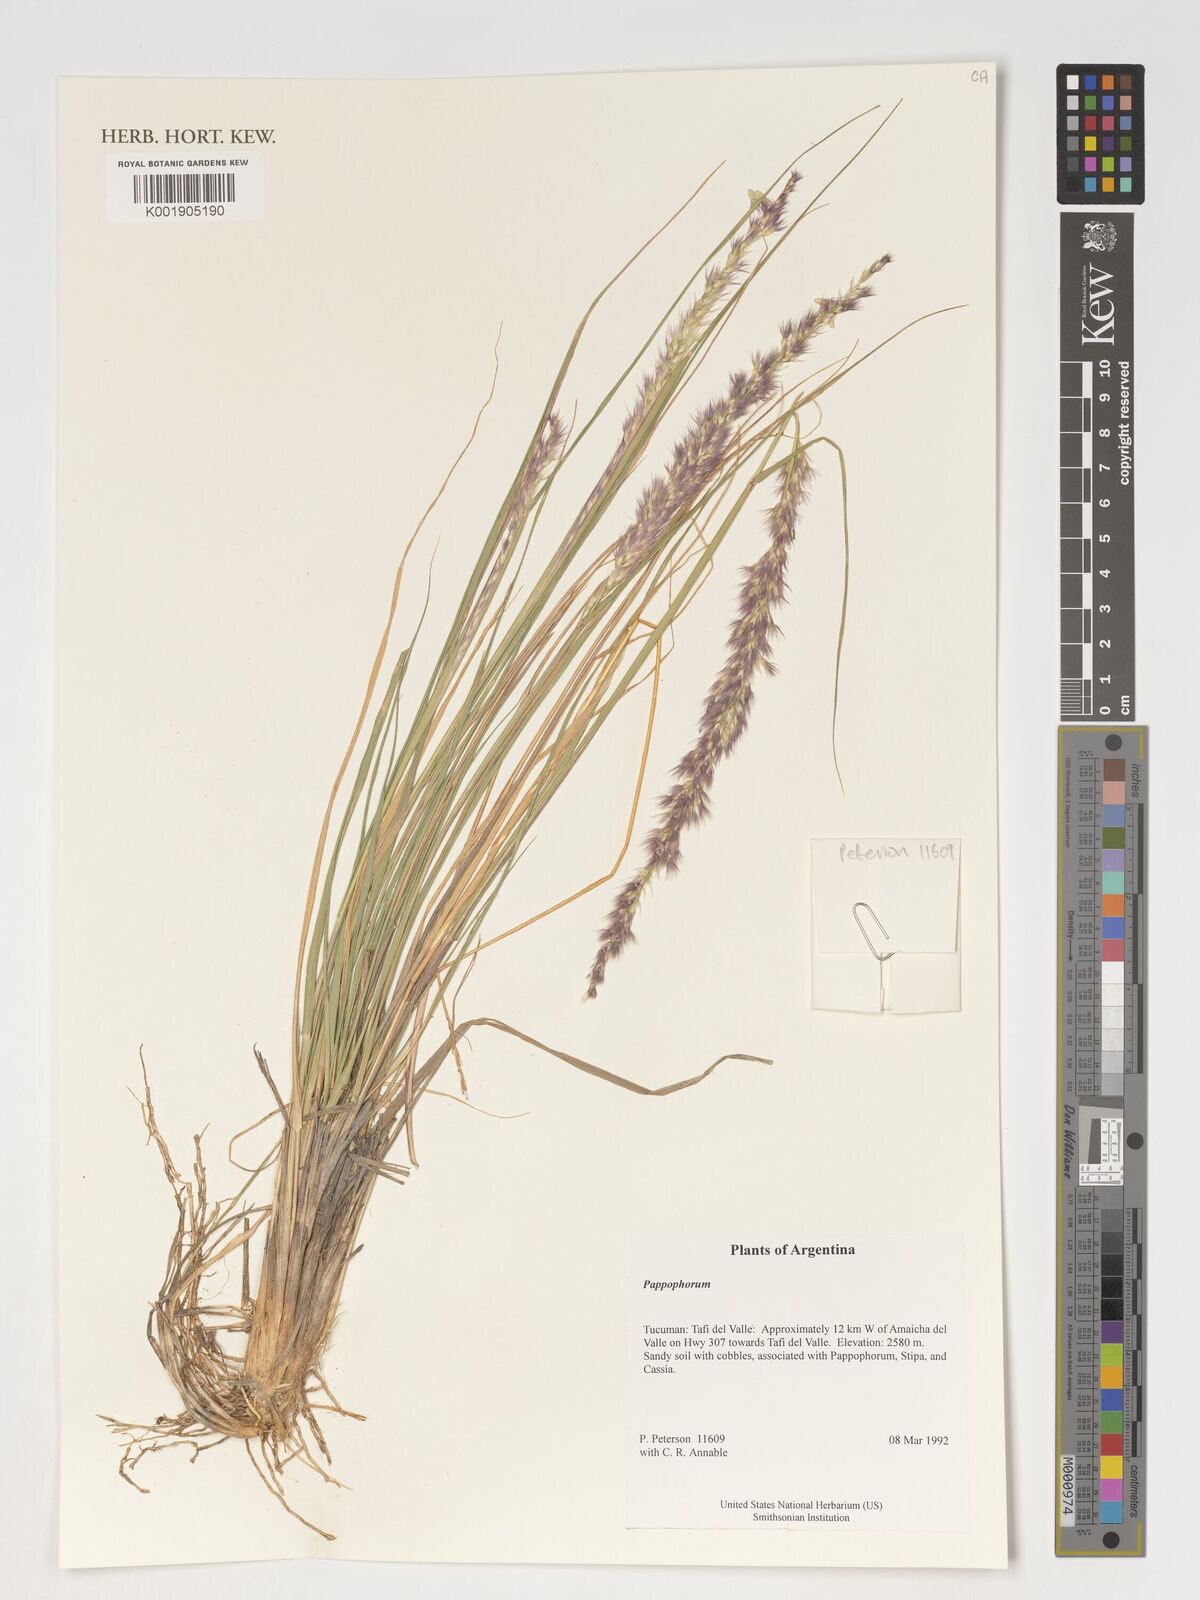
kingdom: Plantae
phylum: Tracheophyta
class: Liliopsida
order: Poales
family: Poaceae
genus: Pappophorum
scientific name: Pappophorum
